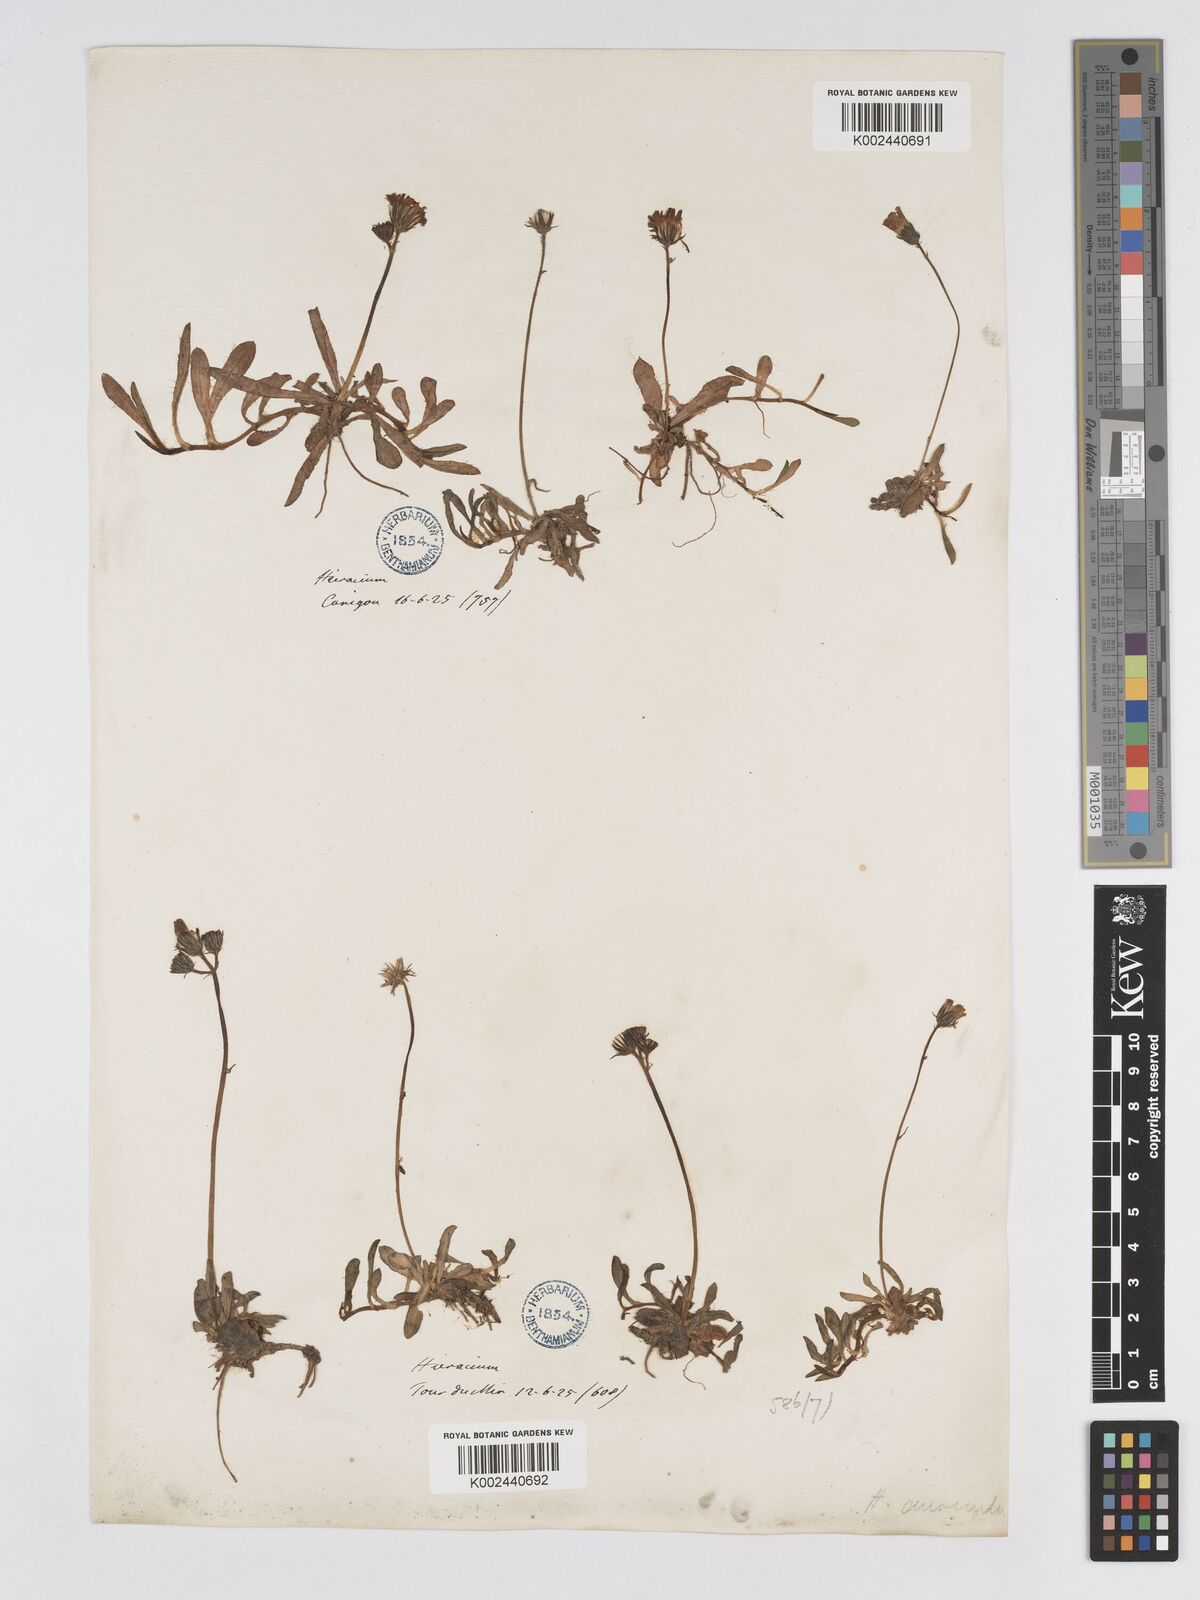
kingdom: Plantae
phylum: Tracheophyta
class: Magnoliopsida
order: Asterales
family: Asteraceae
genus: Pilosella
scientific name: Pilosella floribunda
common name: Glaucous hawkweed
